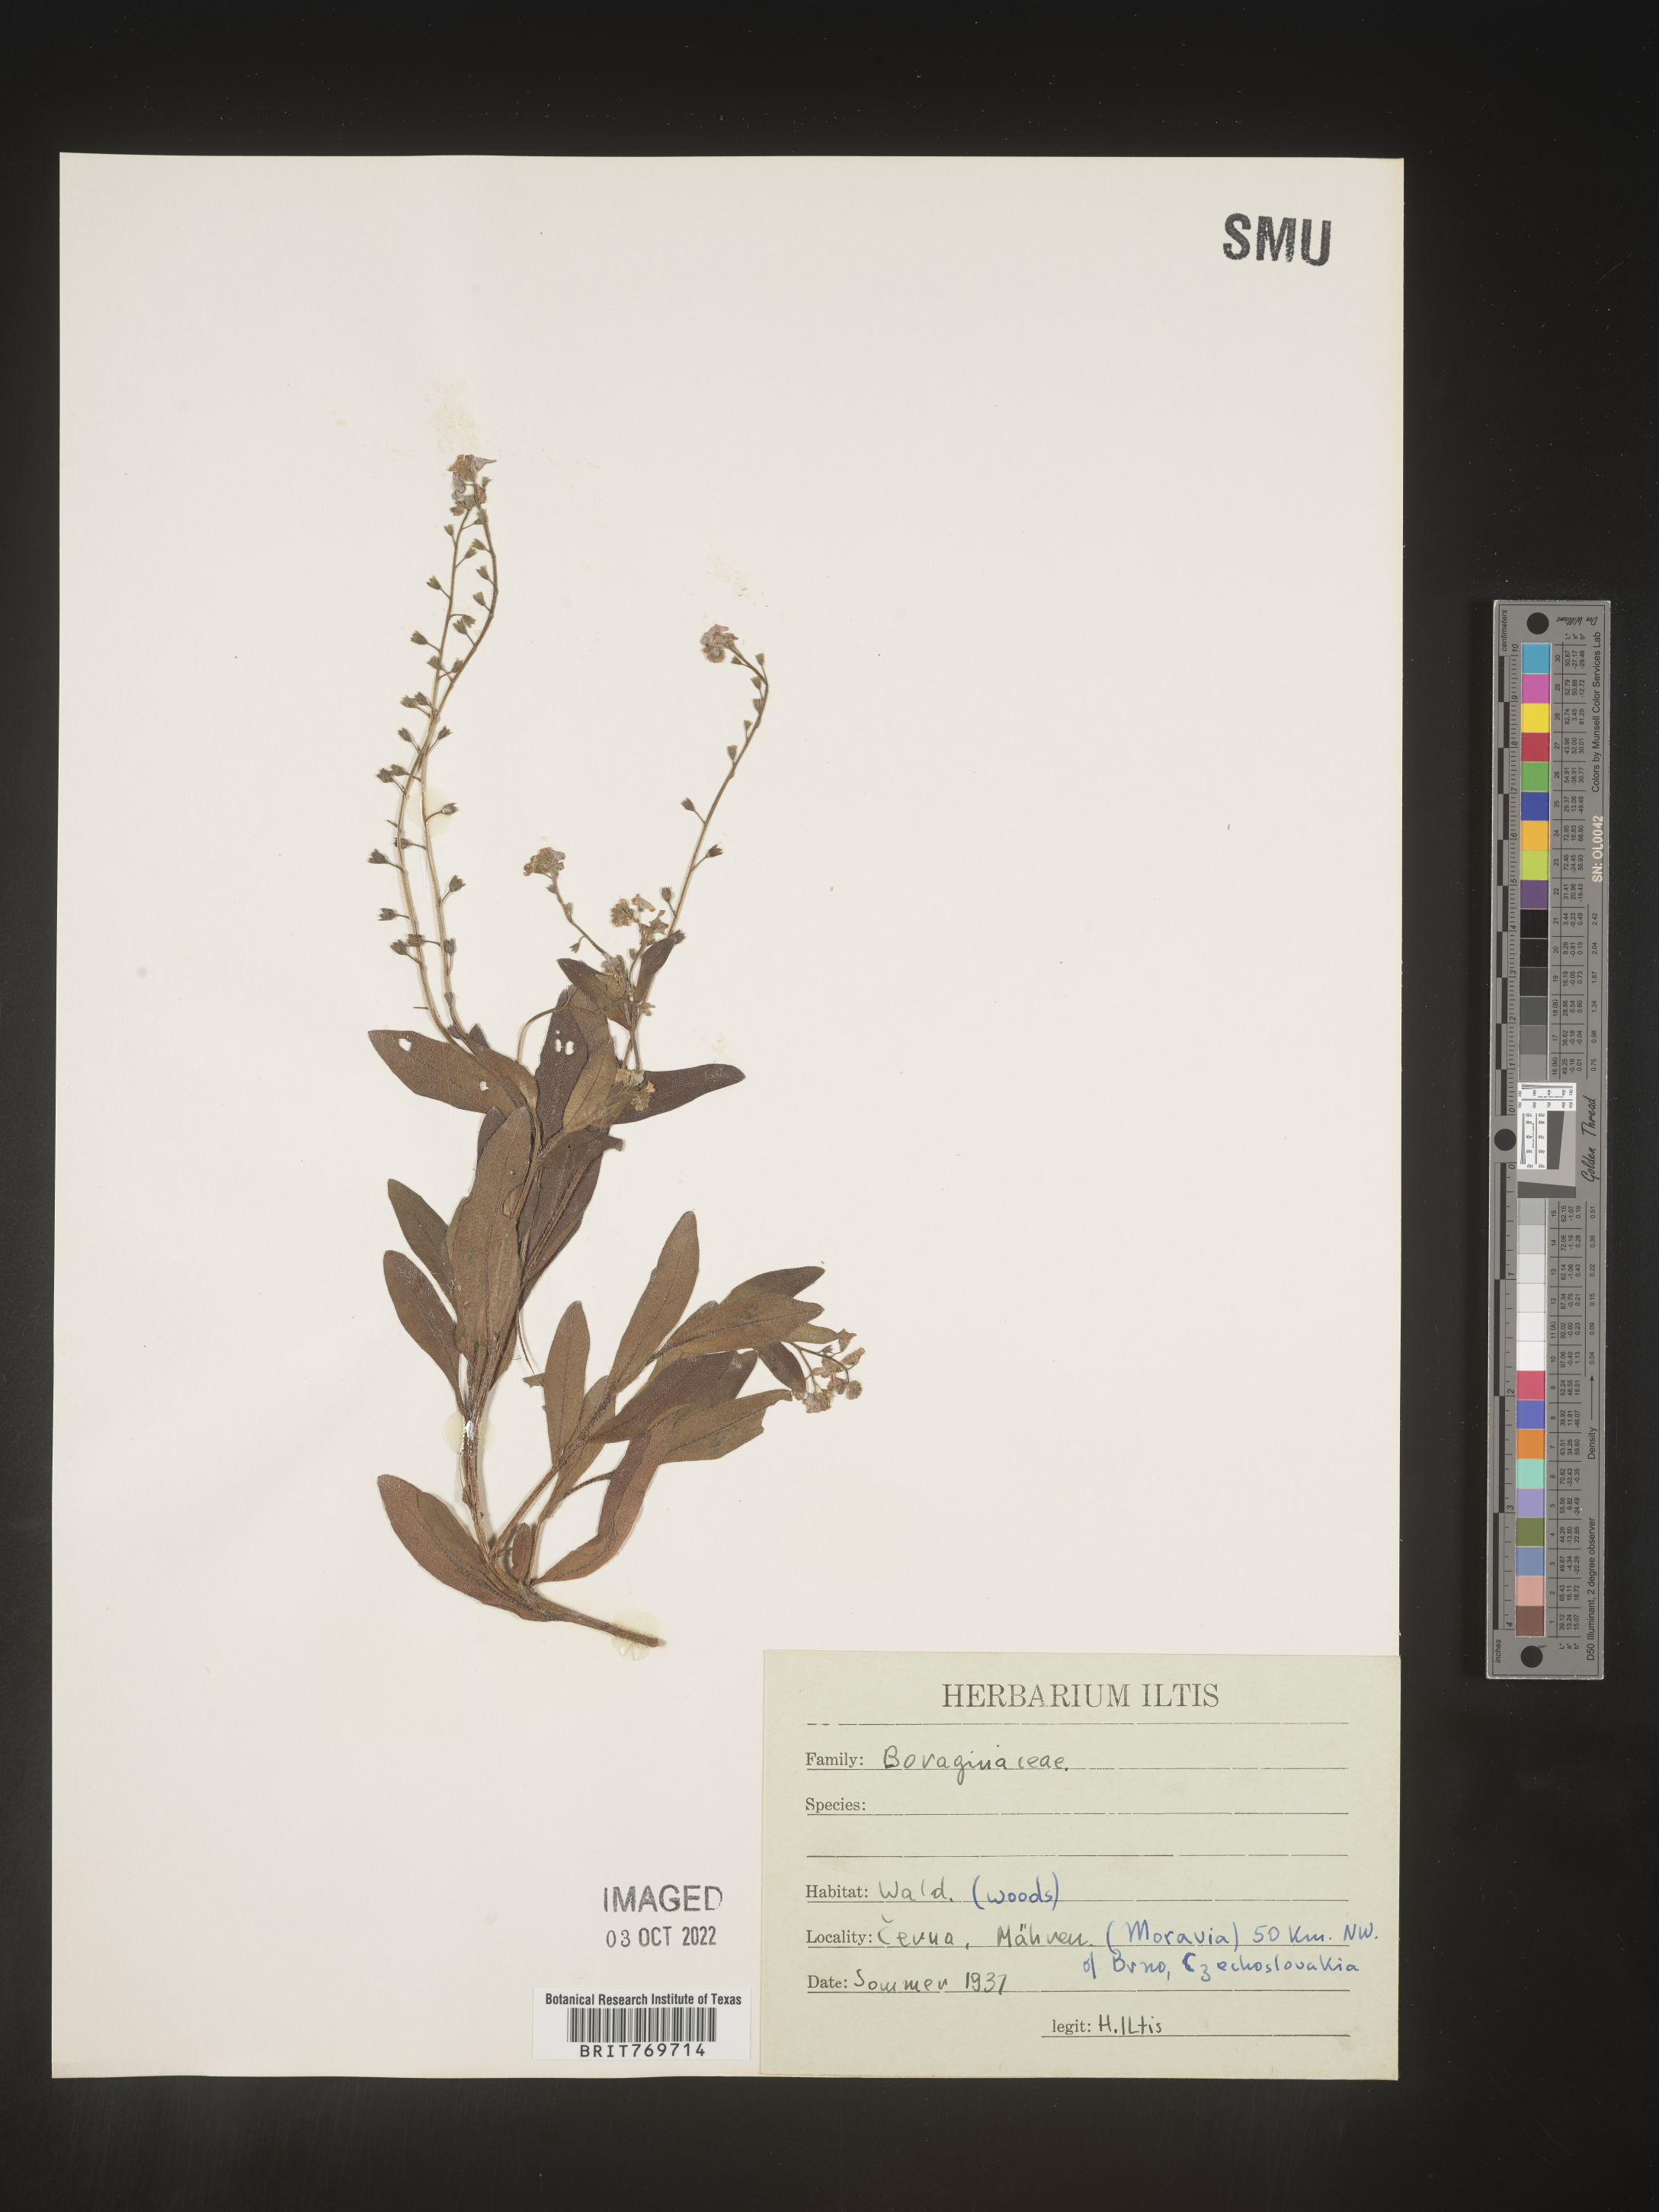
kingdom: Plantae
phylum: Tracheophyta
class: Magnoliopsida
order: Boraginales
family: Boraginaceae
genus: Myosotis
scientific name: Myosotis
